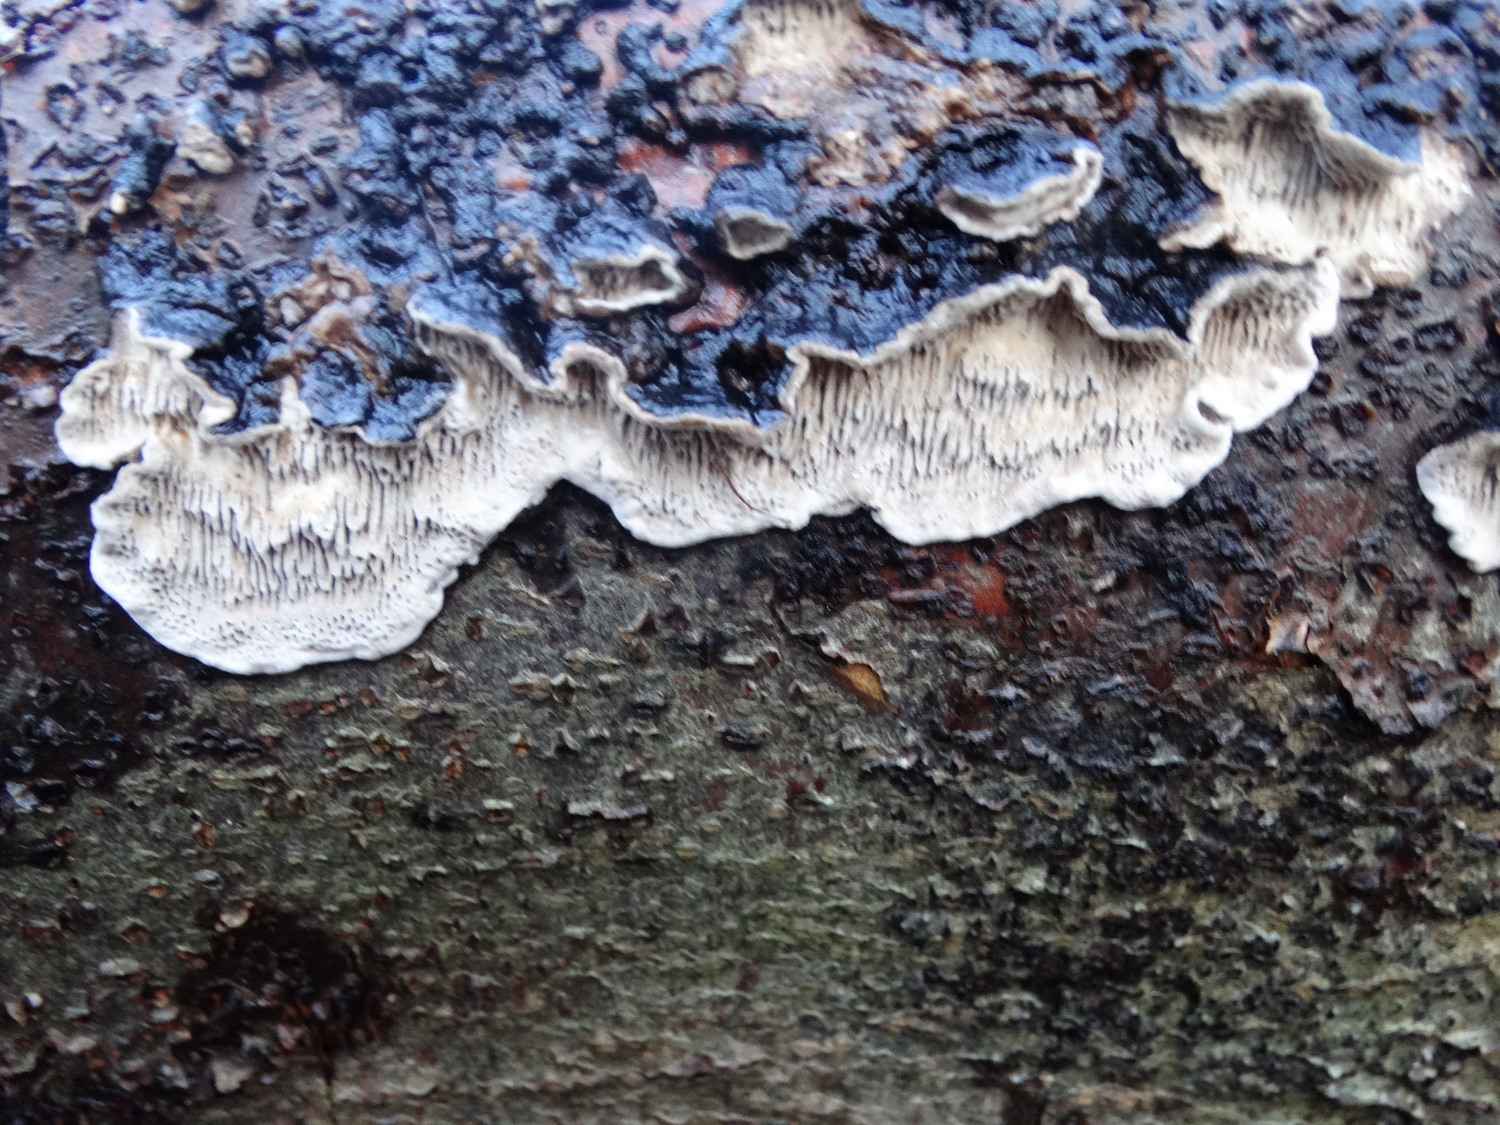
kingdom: Fungi
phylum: Basidiomycota
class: Agaricomycetes
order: Polyporales
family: Polyporaceae
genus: Podofomes
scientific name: Podofomes mollis
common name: blød begporesvamp
